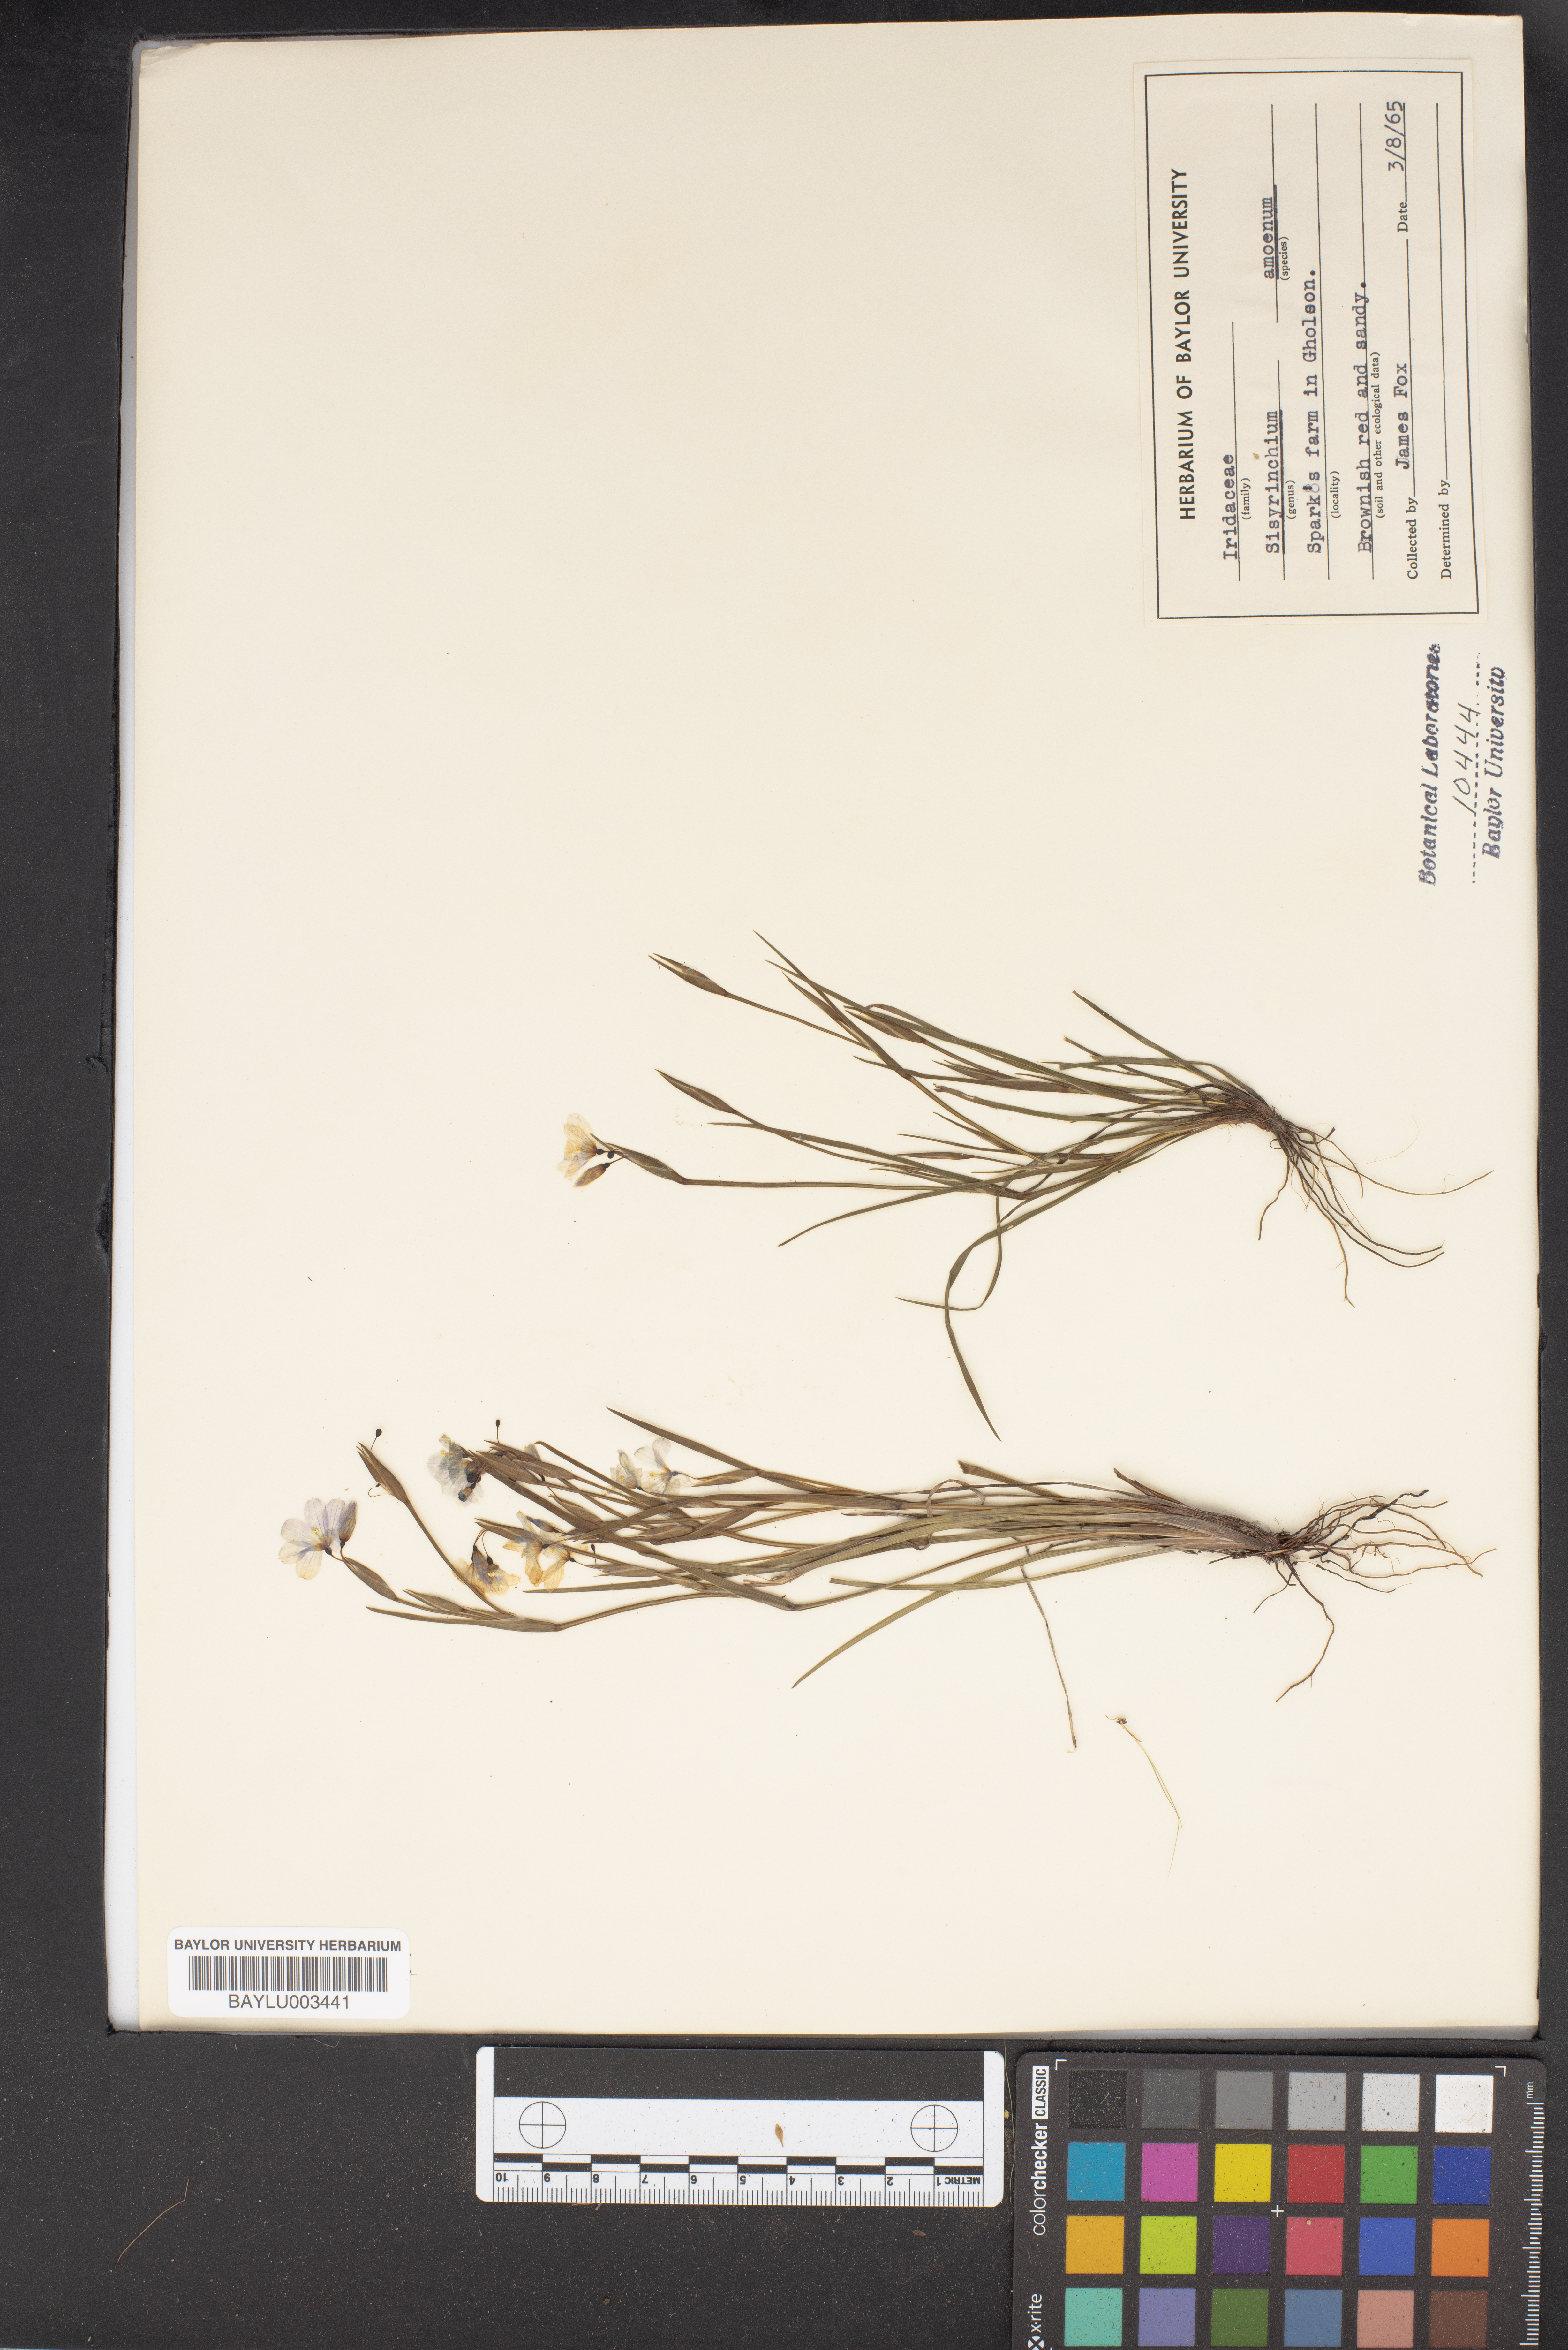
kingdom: Plantae
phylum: Tracheophyta
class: Liliopsida
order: Asparagales
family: Iridaceae
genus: Sisyrinchium
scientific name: Sisyrinchium ensigerum
